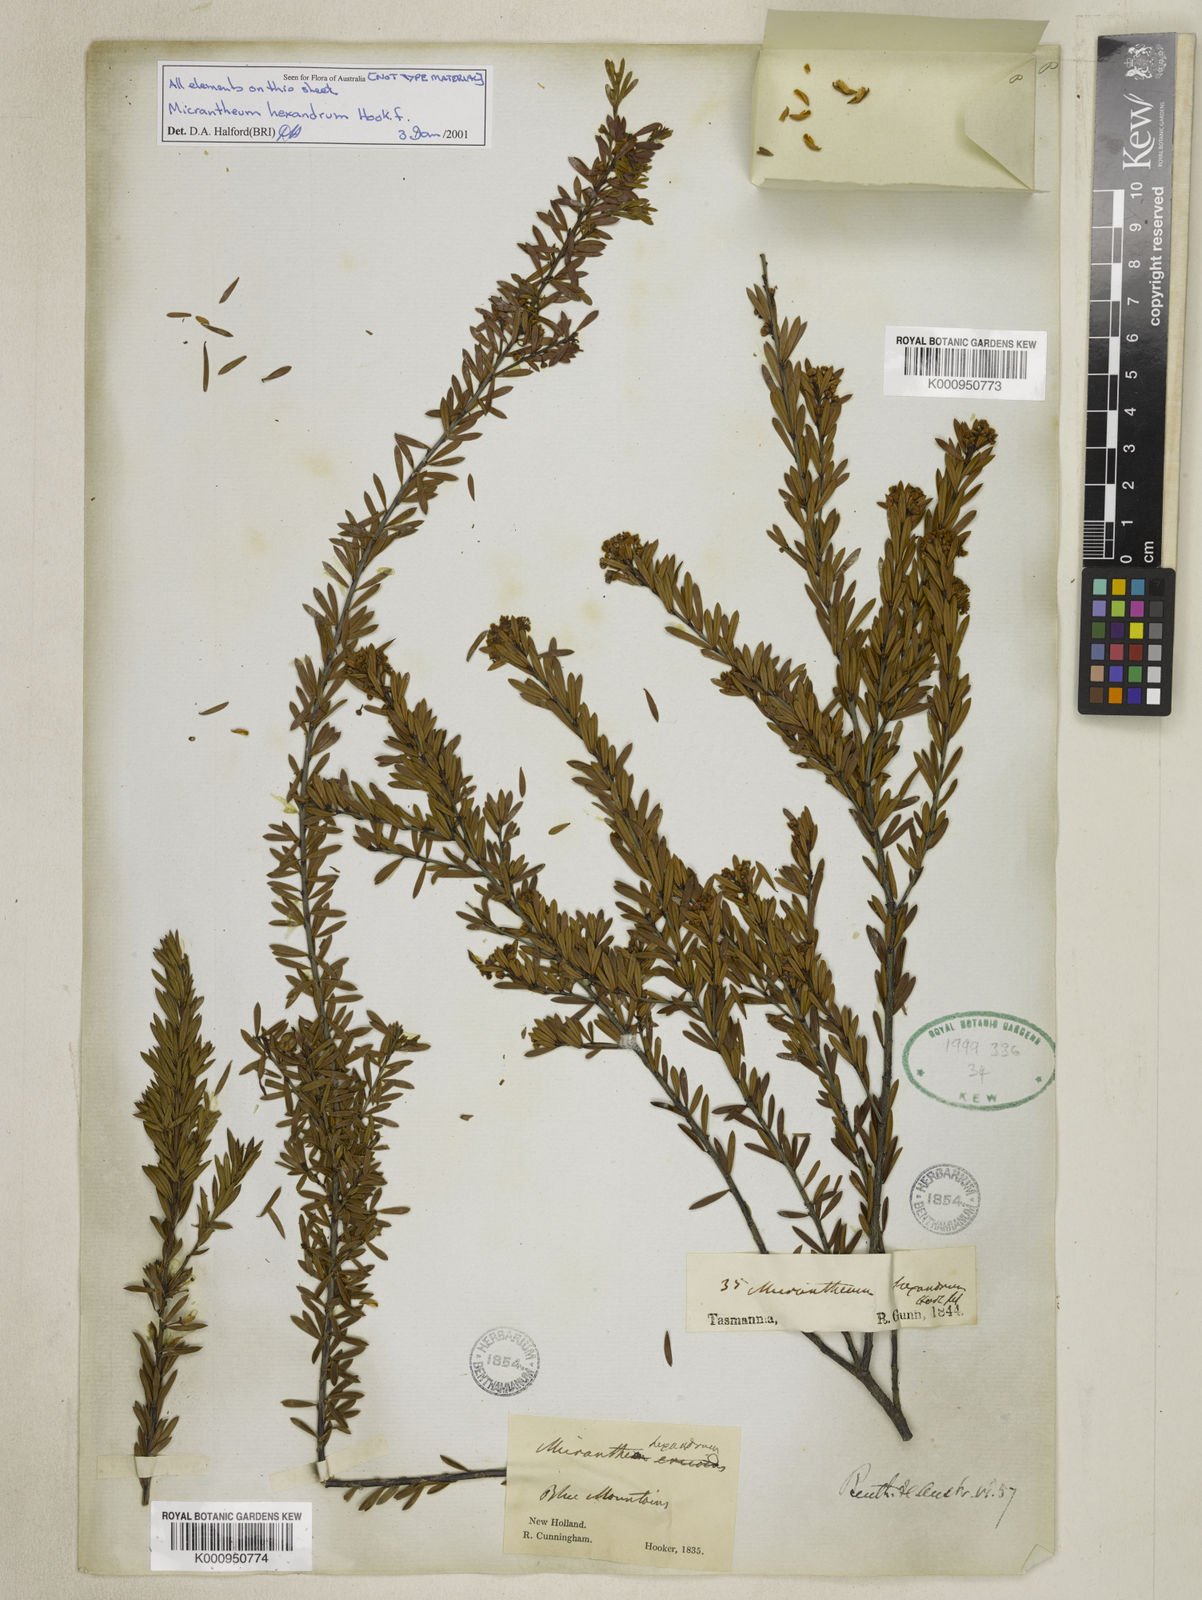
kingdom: Plantae
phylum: Tracheophyta
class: Magnoliopsida
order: Malpighiales
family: Picrodendraceae
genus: Micrantheum
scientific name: Micrantheum hexandrum
